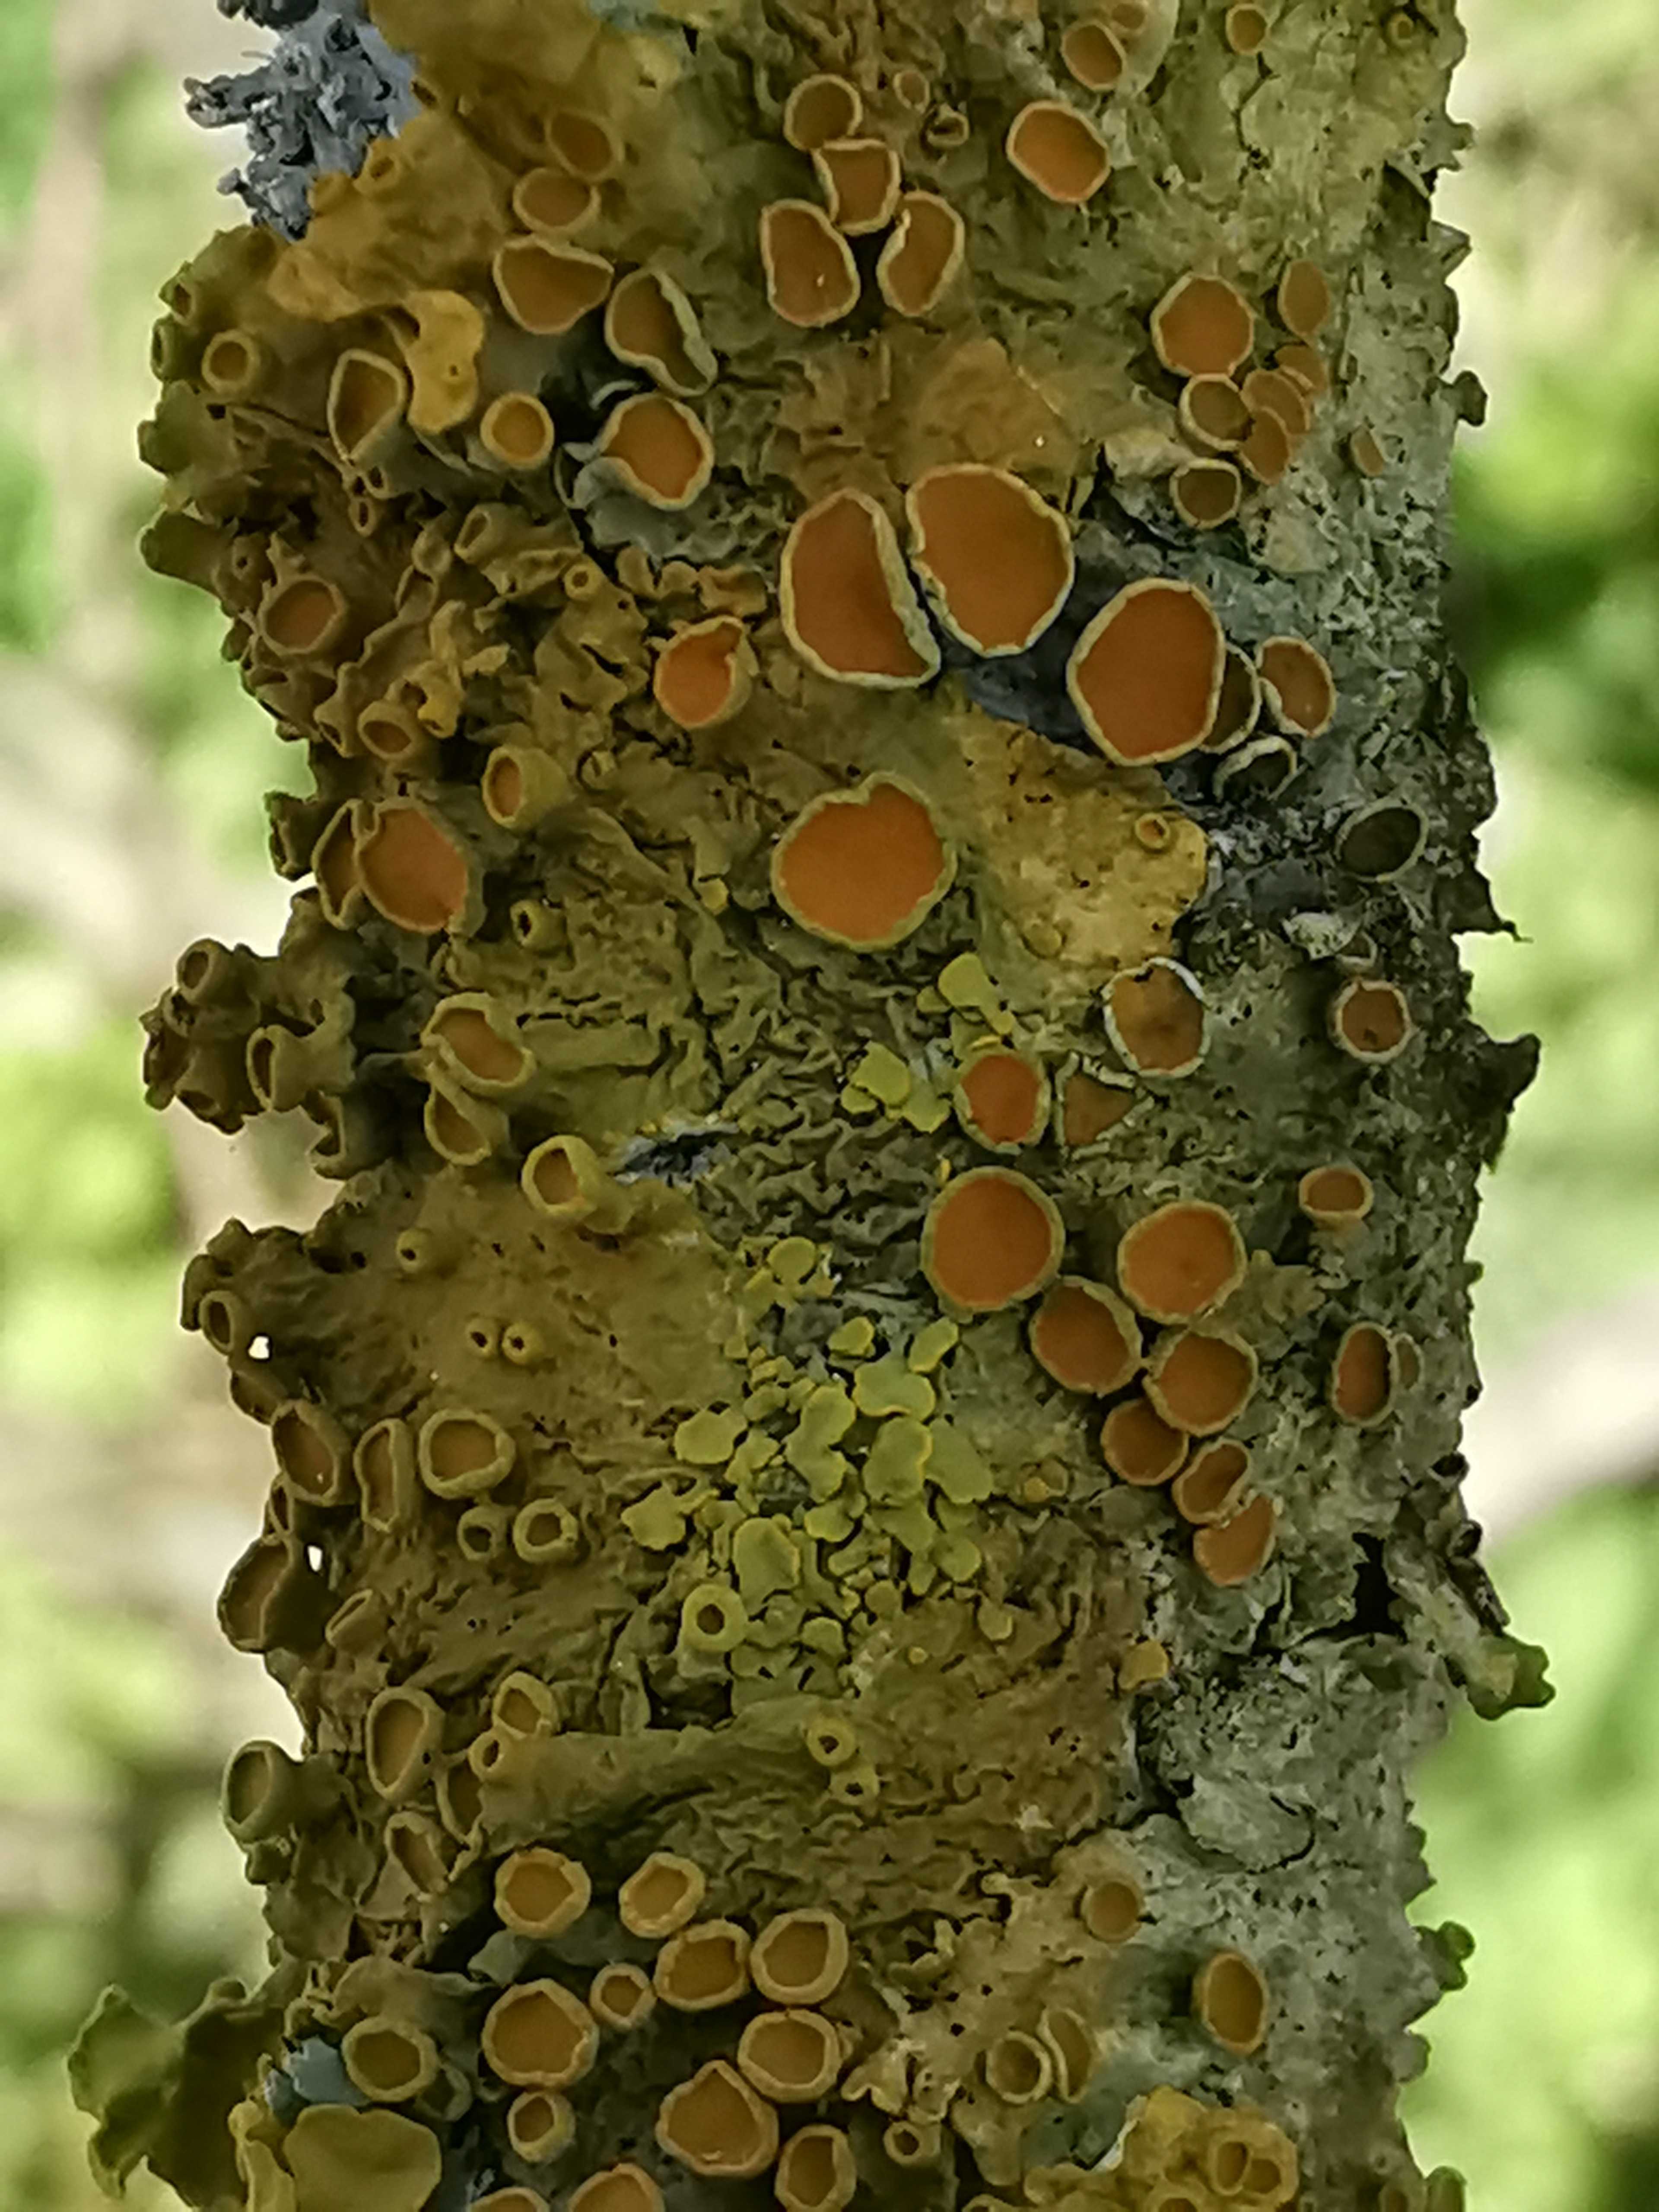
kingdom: Fungi
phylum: Ascomycota
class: Lecanoromycetes
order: Teloschistales
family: Teloschistaceae
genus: Xanthoria
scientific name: Xanthoria parietina
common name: almindelig væggelav
